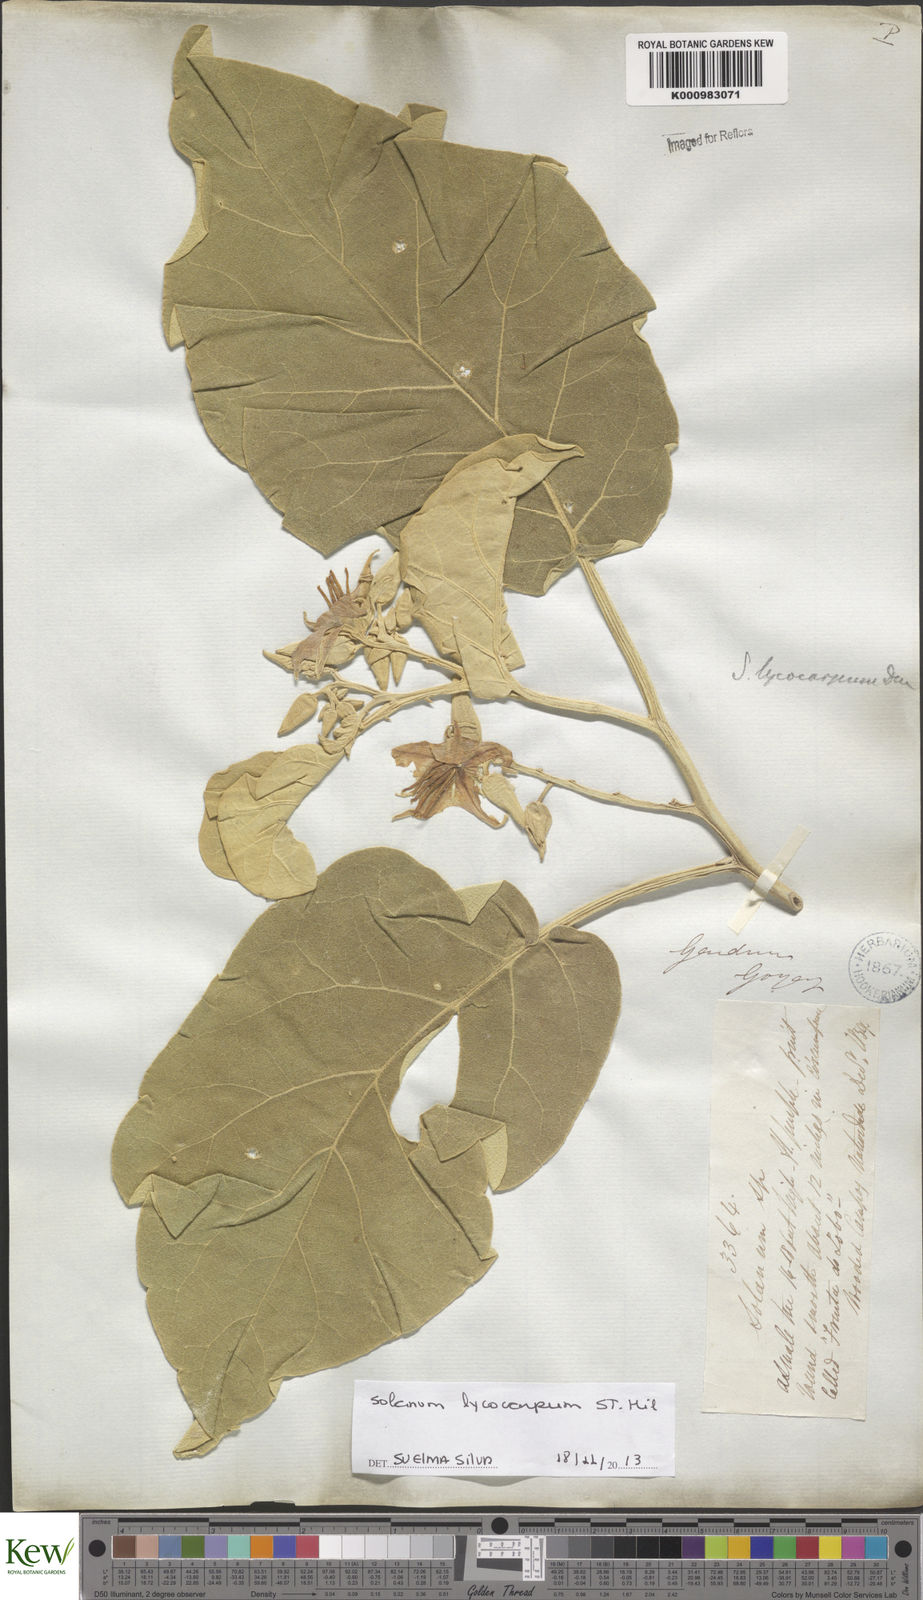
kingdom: Plantae
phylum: Tracheophyta
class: Magnoliopsida
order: Solanales
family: Solanaceae
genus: Solanum
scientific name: Solanum lycocarpum
